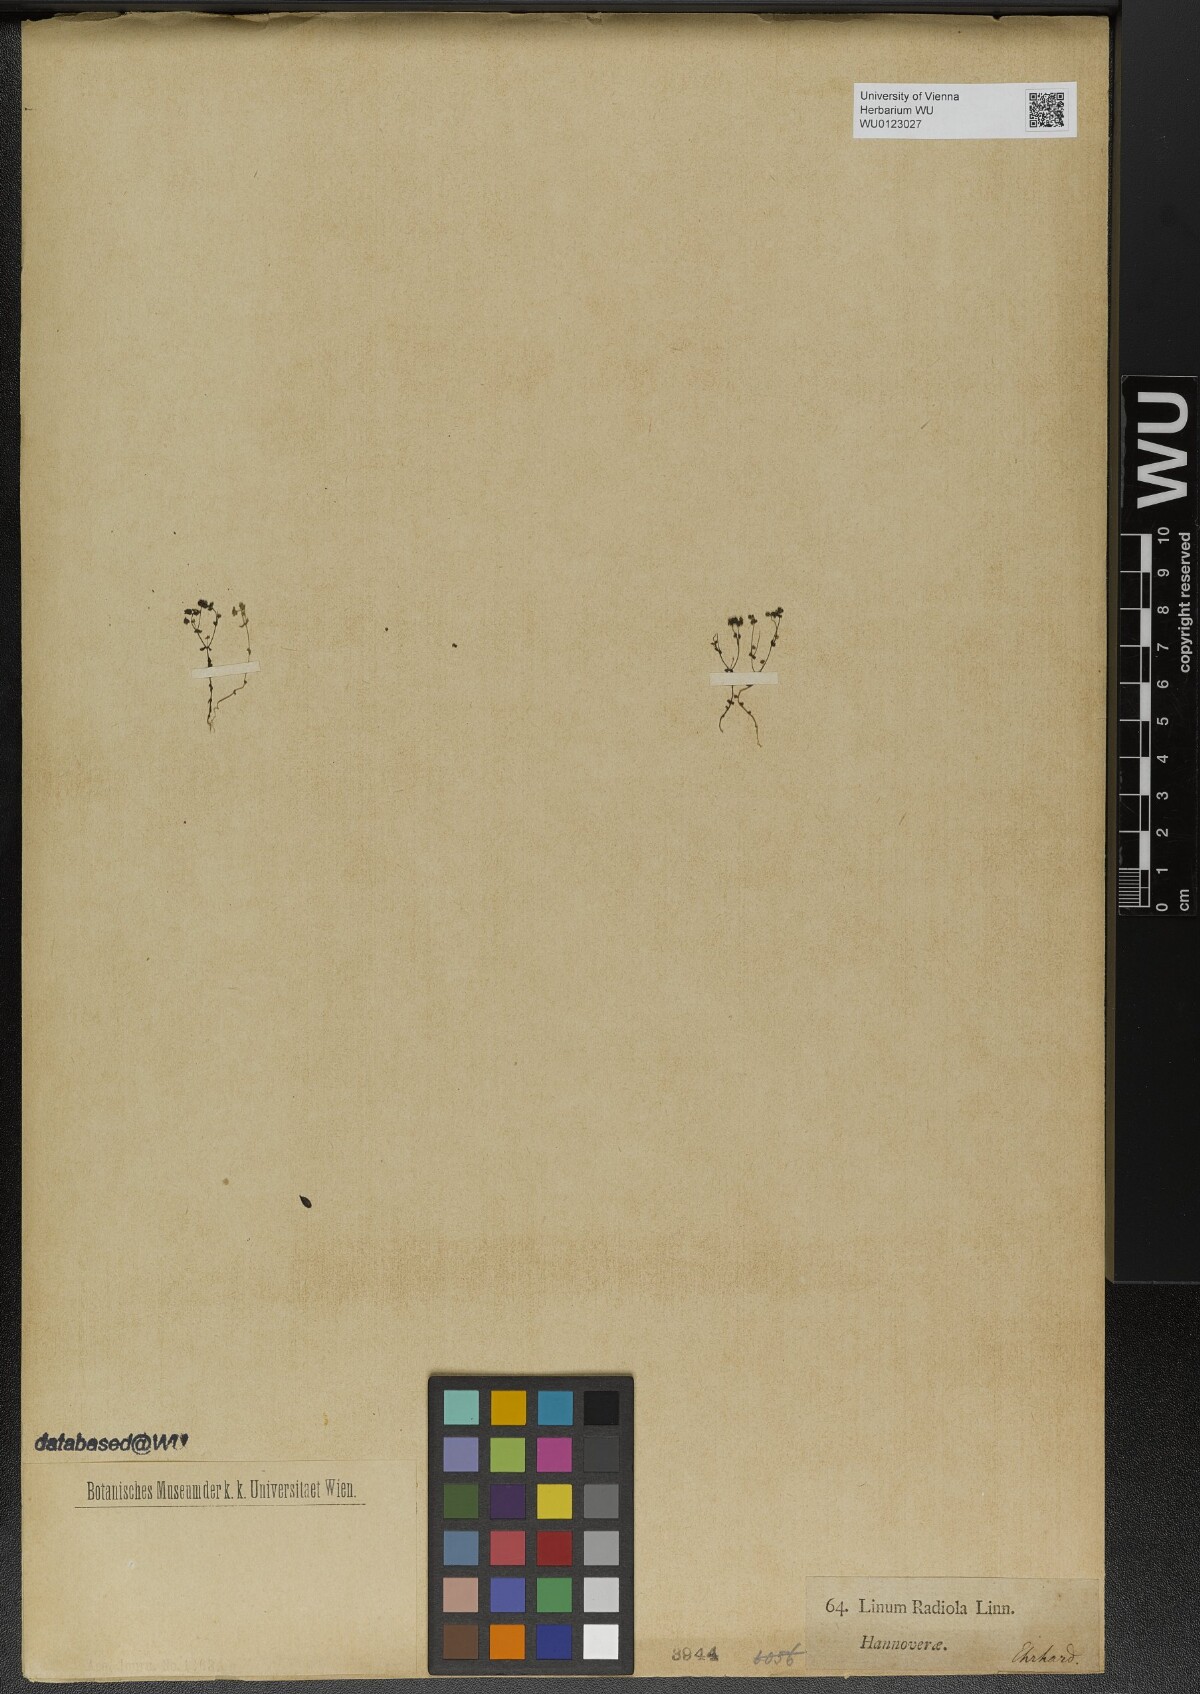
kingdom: Plantae
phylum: Tracheophyta
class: Magnoliopsida
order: Malpighiales
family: Linaceae
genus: Radiola
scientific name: Radiola linoides
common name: Allseed
